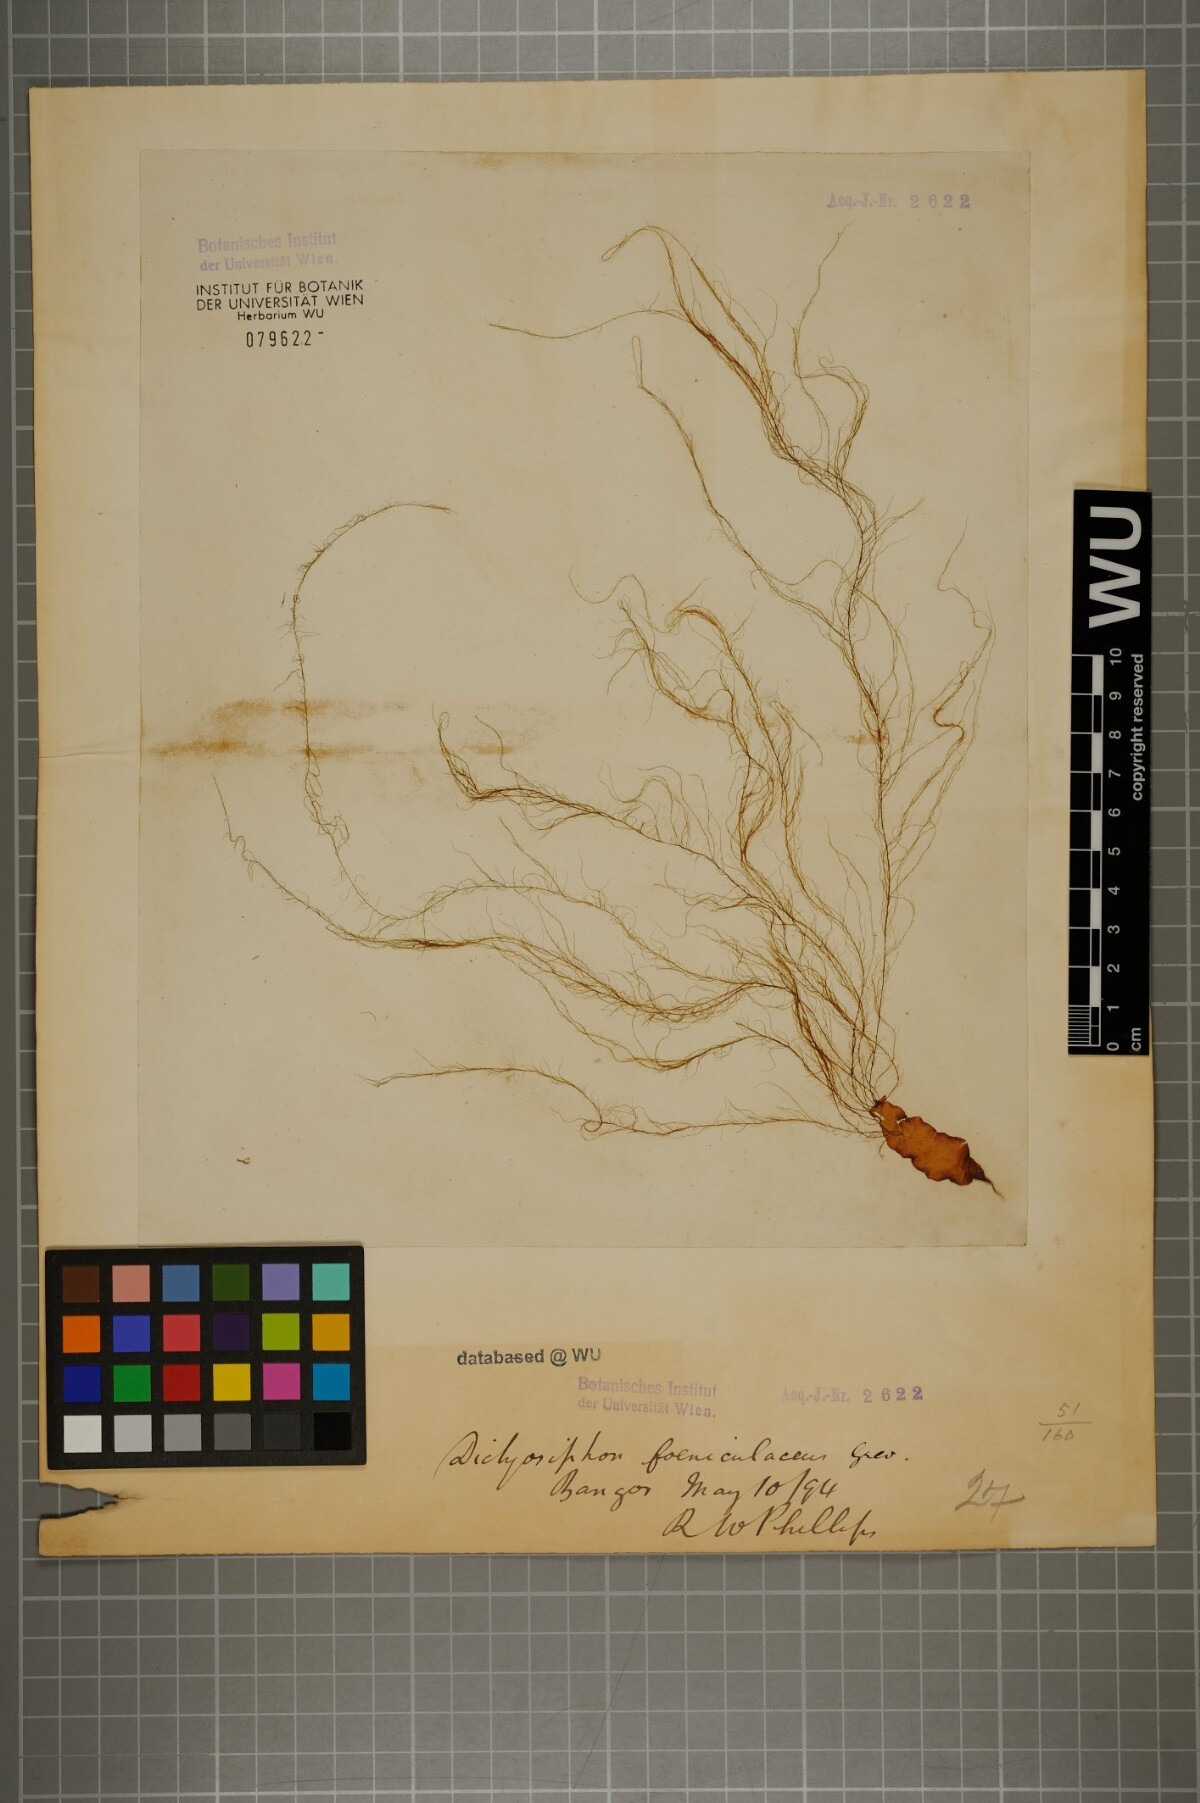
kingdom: Chromista
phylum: Ochrophyta
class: Phaeophyceae
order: Ectocarpales
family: Chordariaceae
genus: Dictyosiphon
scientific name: Dictyosiphon foeniculaceus
